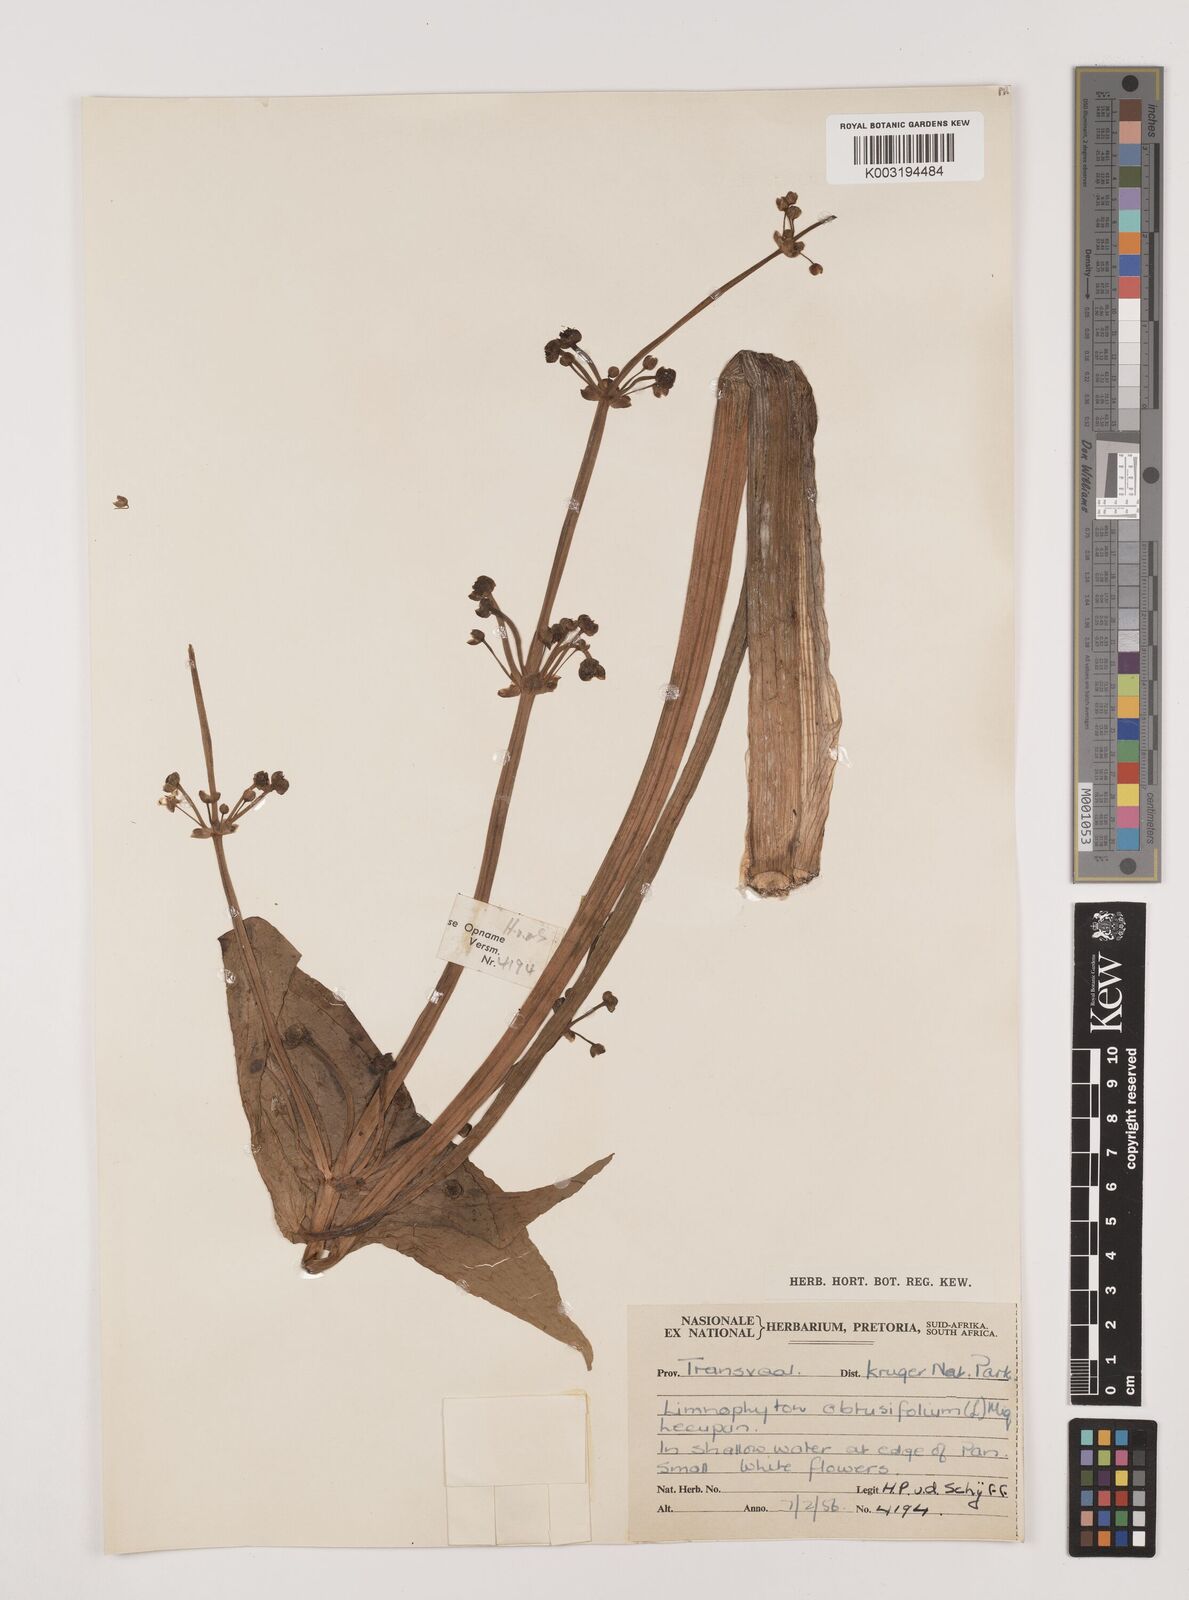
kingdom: Plantae
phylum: Tracheophyta
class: Liliopsida
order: Alismatales
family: Alismataceae
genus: Limnophyton
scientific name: Limnophyton obtusifolium
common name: Arrow head
